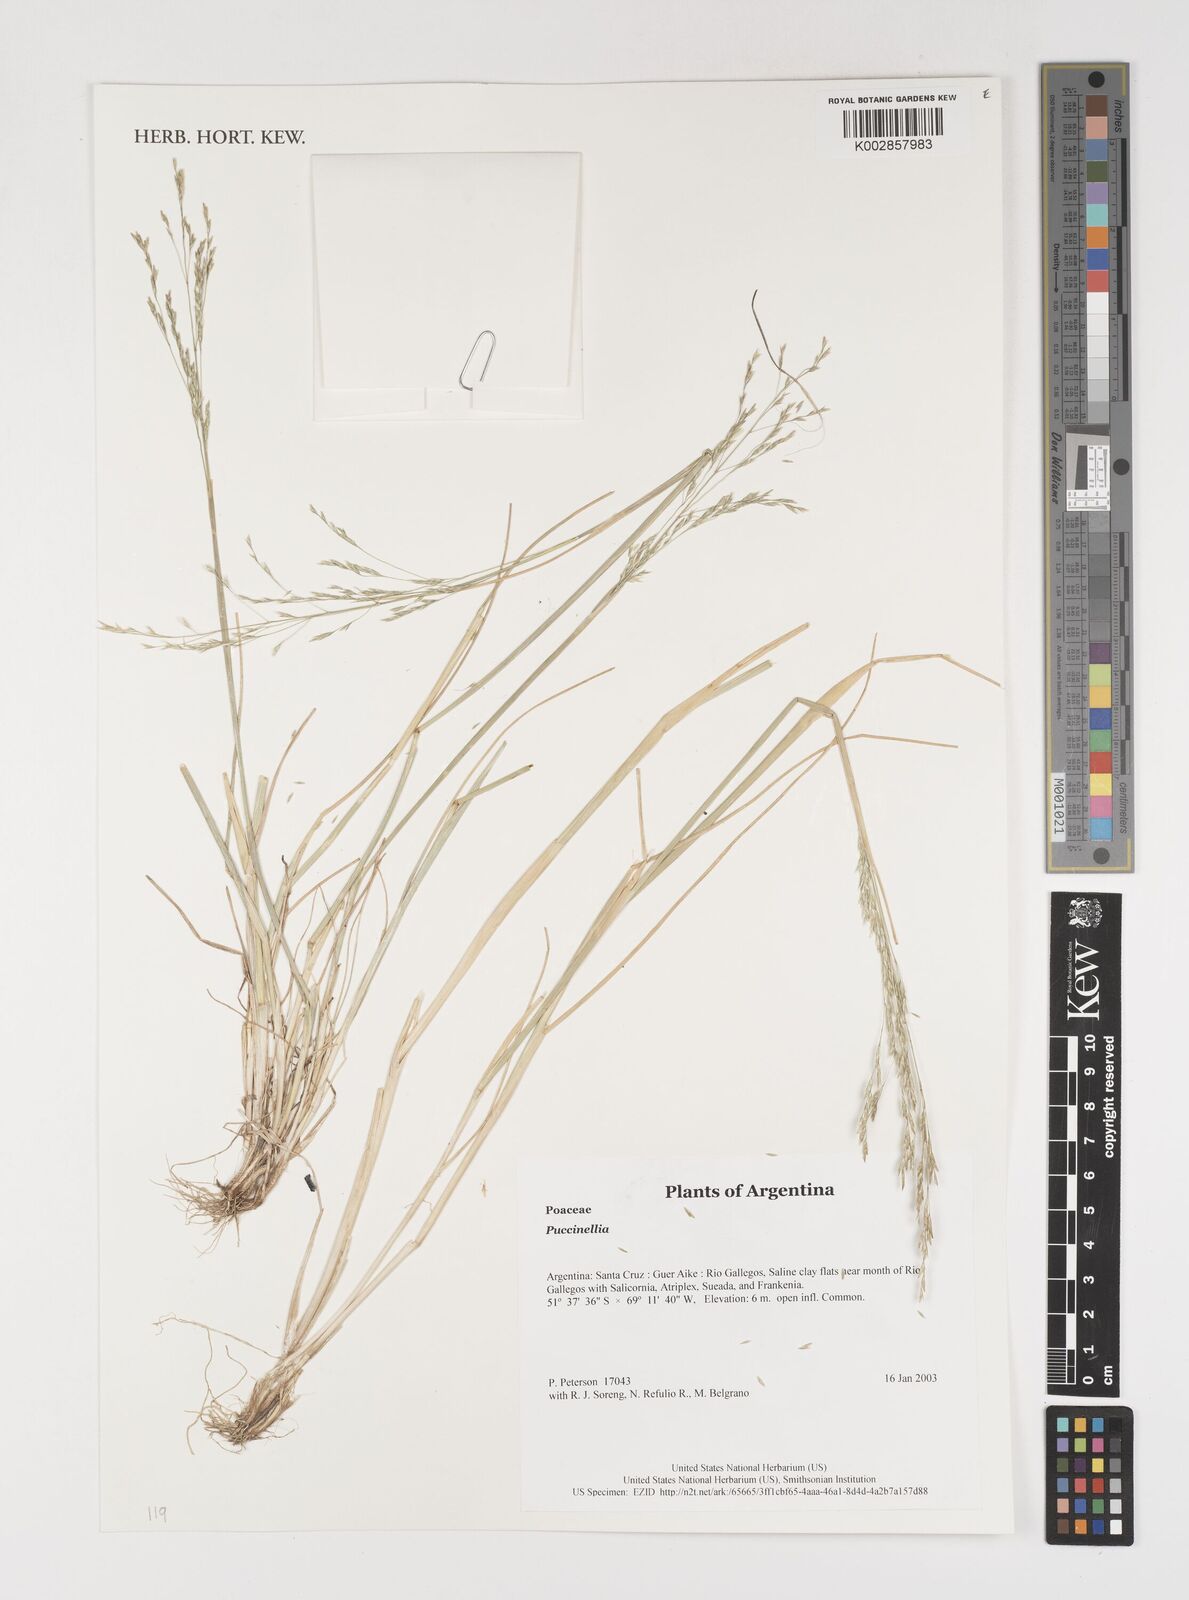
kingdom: Plantae
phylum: Tracheophyta
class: Liliopsida
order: Poales
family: Poaceae
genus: Puccinellia
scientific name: Puccinellia
